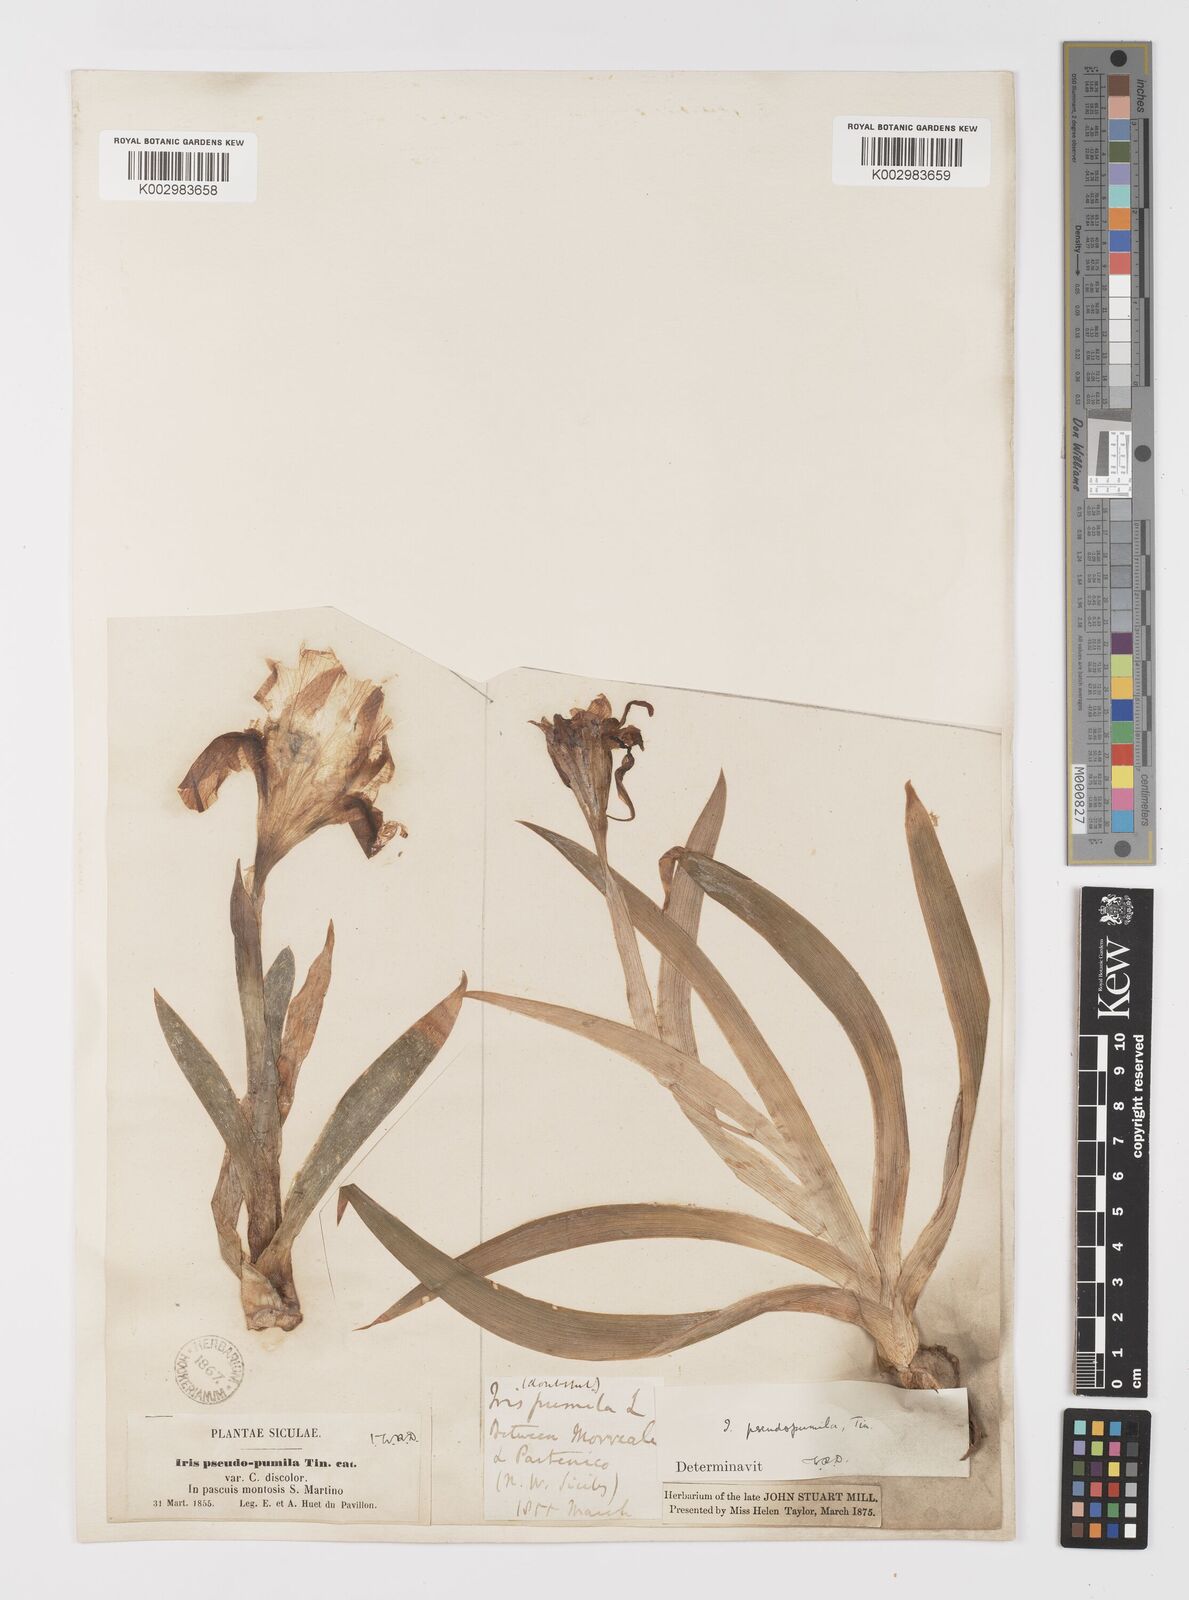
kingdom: Plantae
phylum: Tracheophyta
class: Liliopsida
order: Asparagales
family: Iridaceae
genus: Iris
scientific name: Iris pseudopumila
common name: Southern dwarf iris
